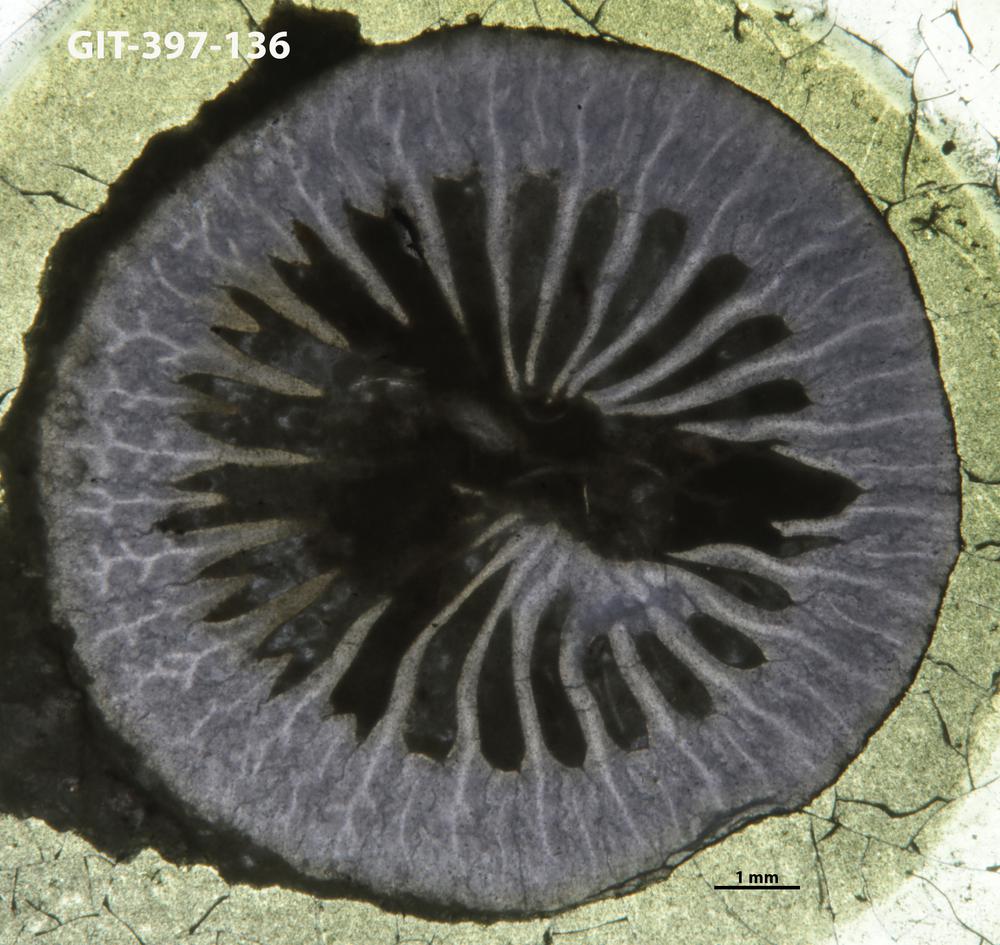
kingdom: Animalia
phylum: Cnidaria
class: Anthozoa
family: Lykophyllidae
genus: Pycnactis
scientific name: Pycnactis
